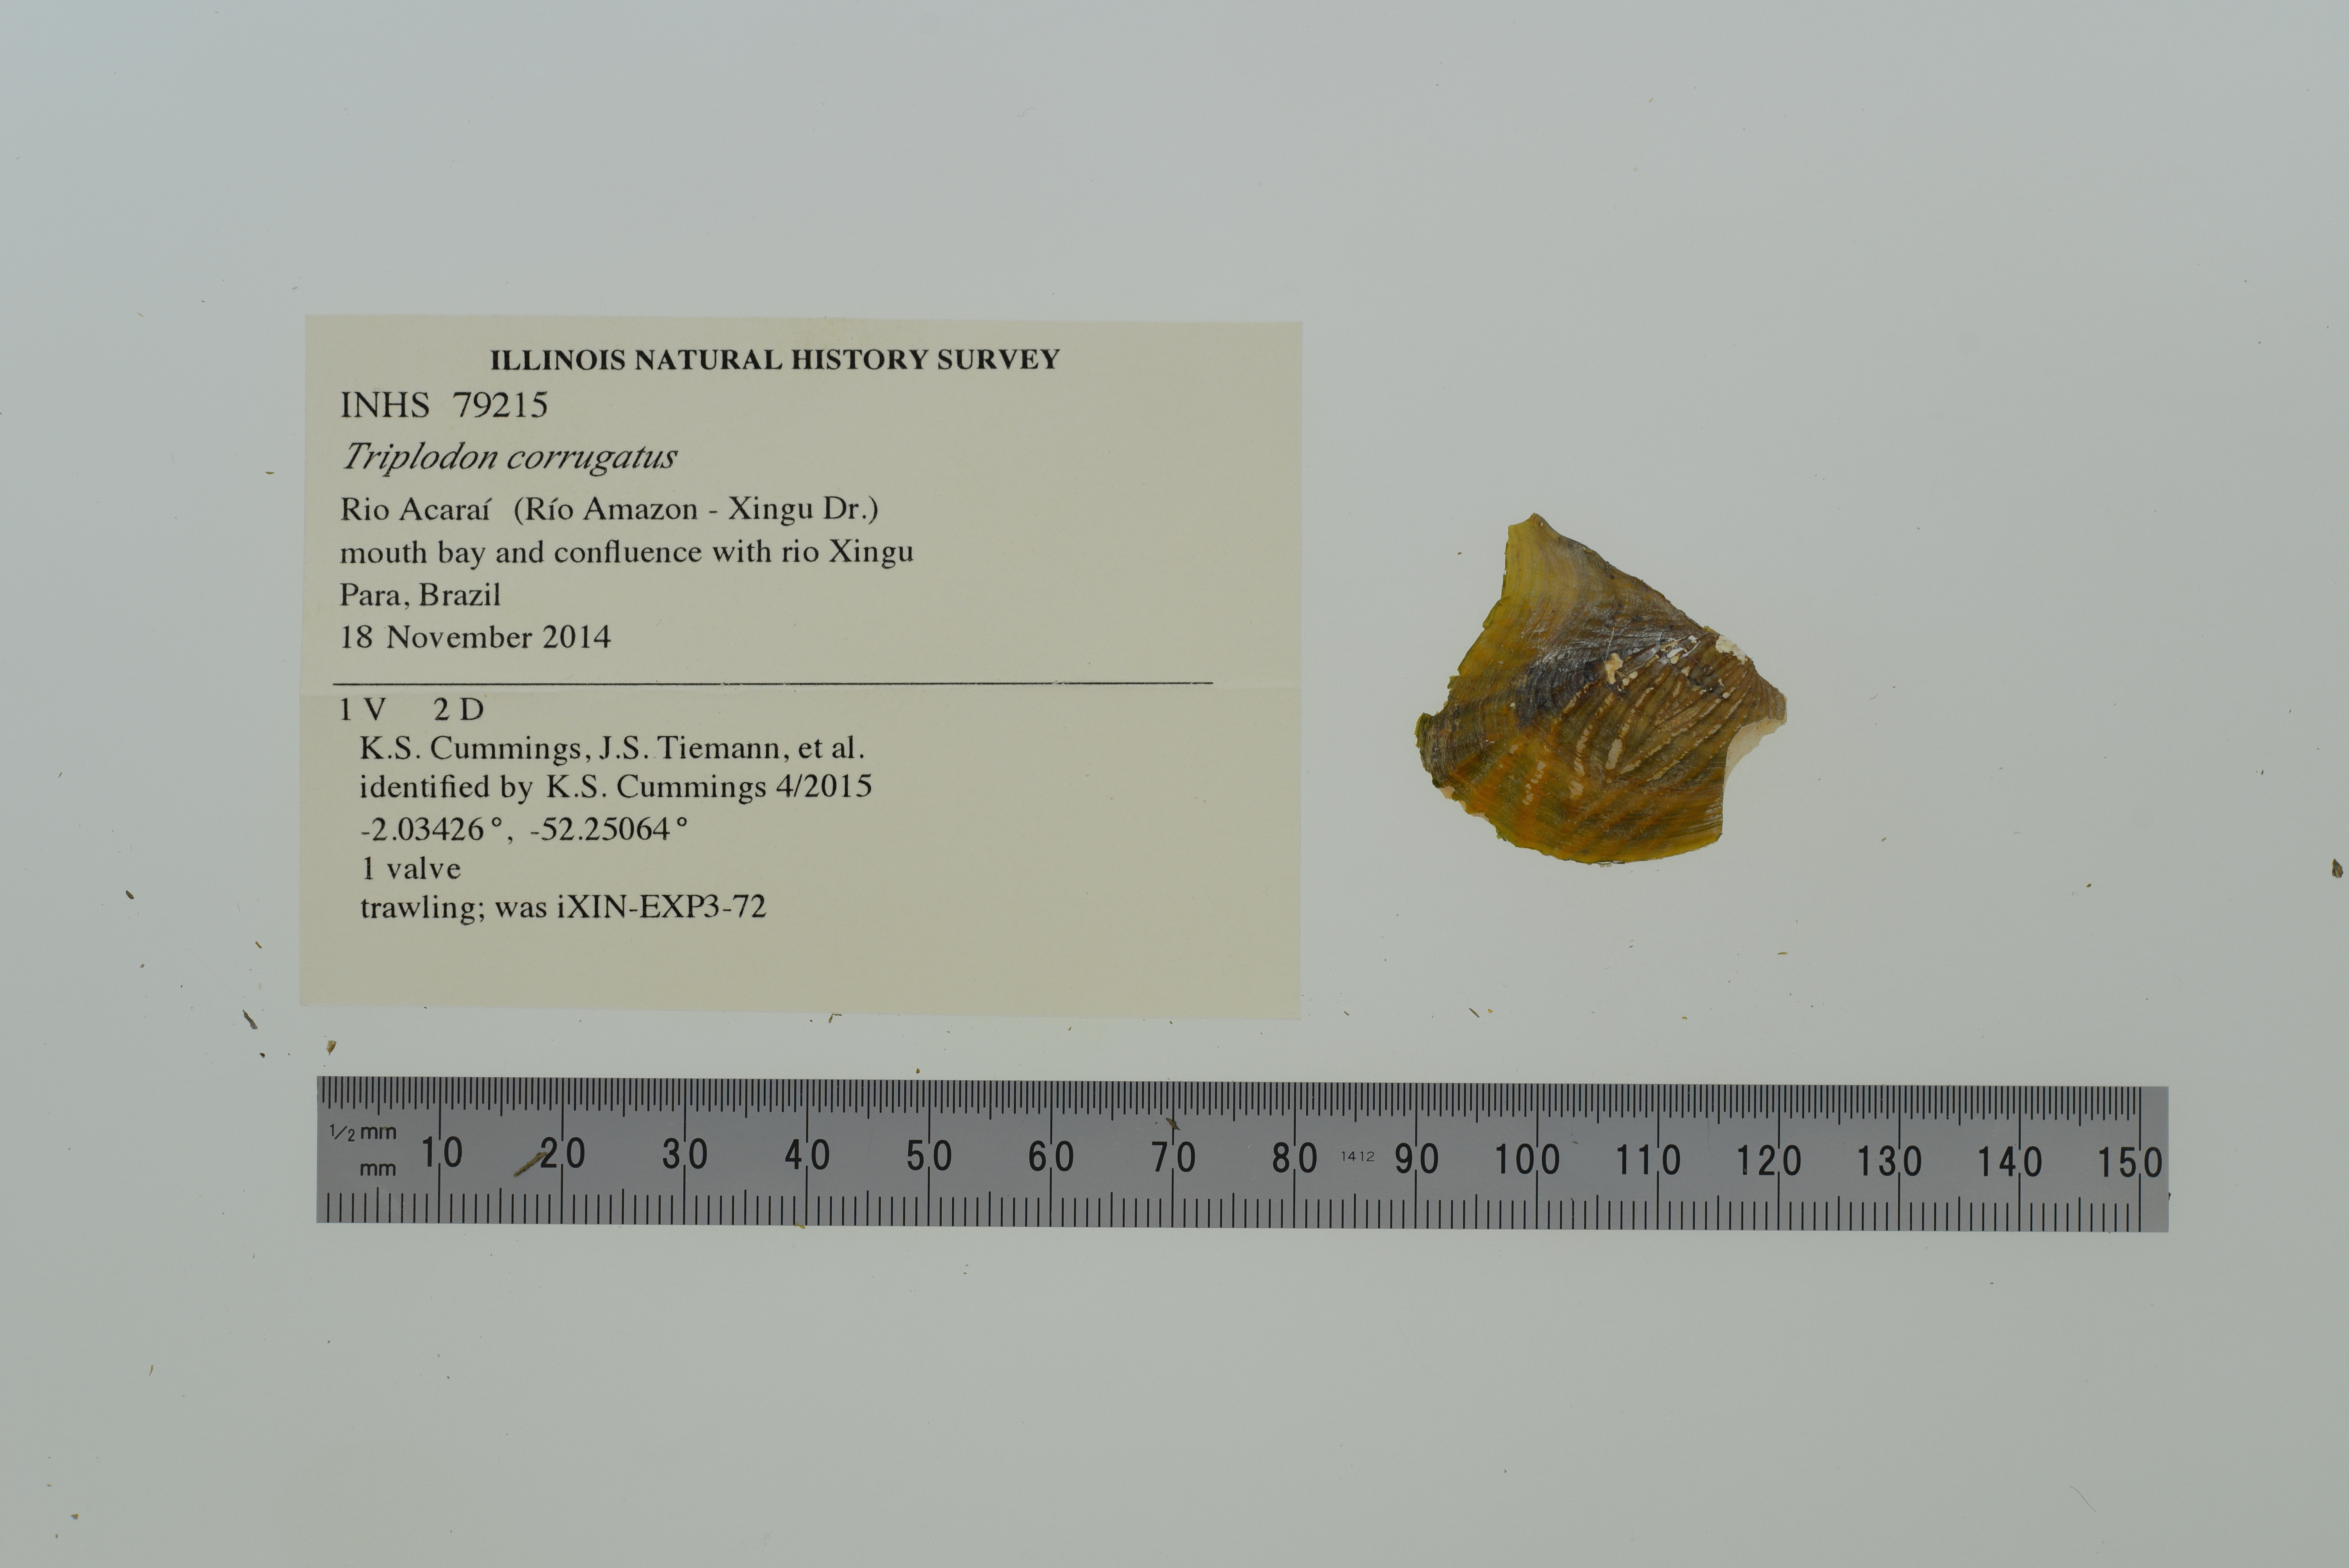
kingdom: Animalia
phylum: Mollusca
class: Bivalvia
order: Unionida
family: Hyriidae
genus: Triplodon
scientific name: Triplodon corrugatus
